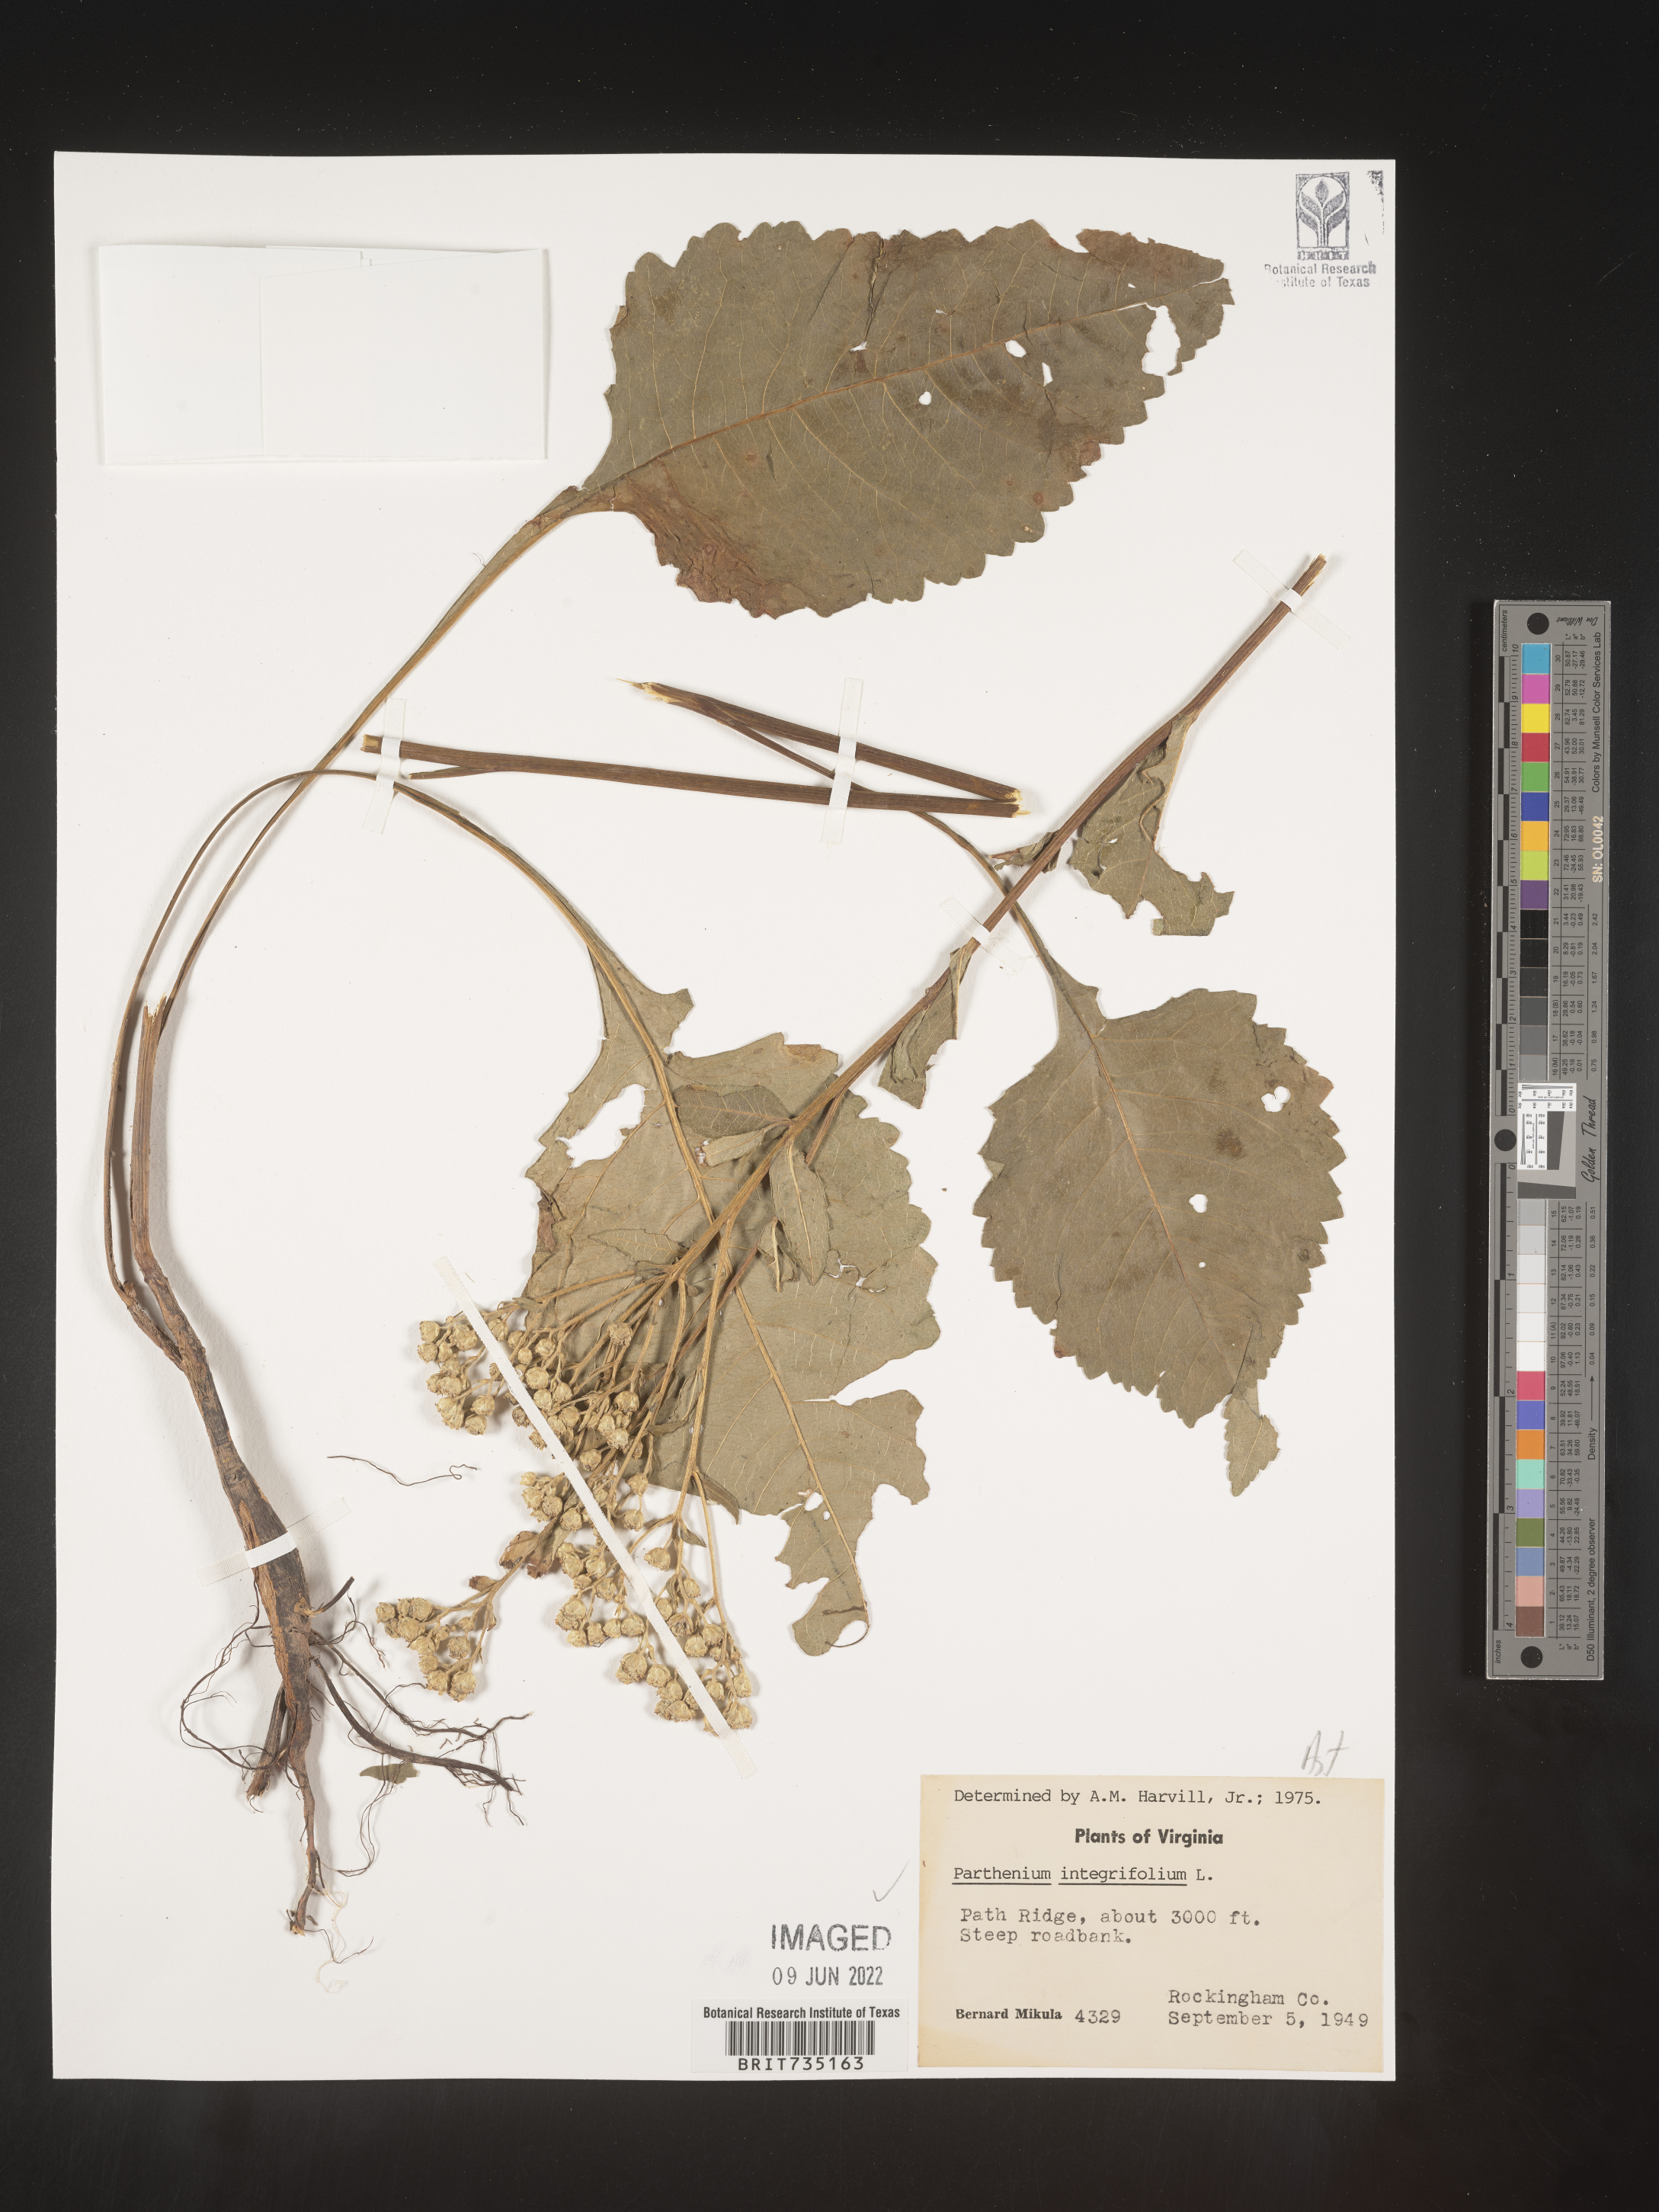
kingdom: Plantae
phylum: Tracheophyta
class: Magnoliopsida
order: Asterales
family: Asteraceae
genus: Parthenium
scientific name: Parthenium integrifolium
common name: American feverfew
